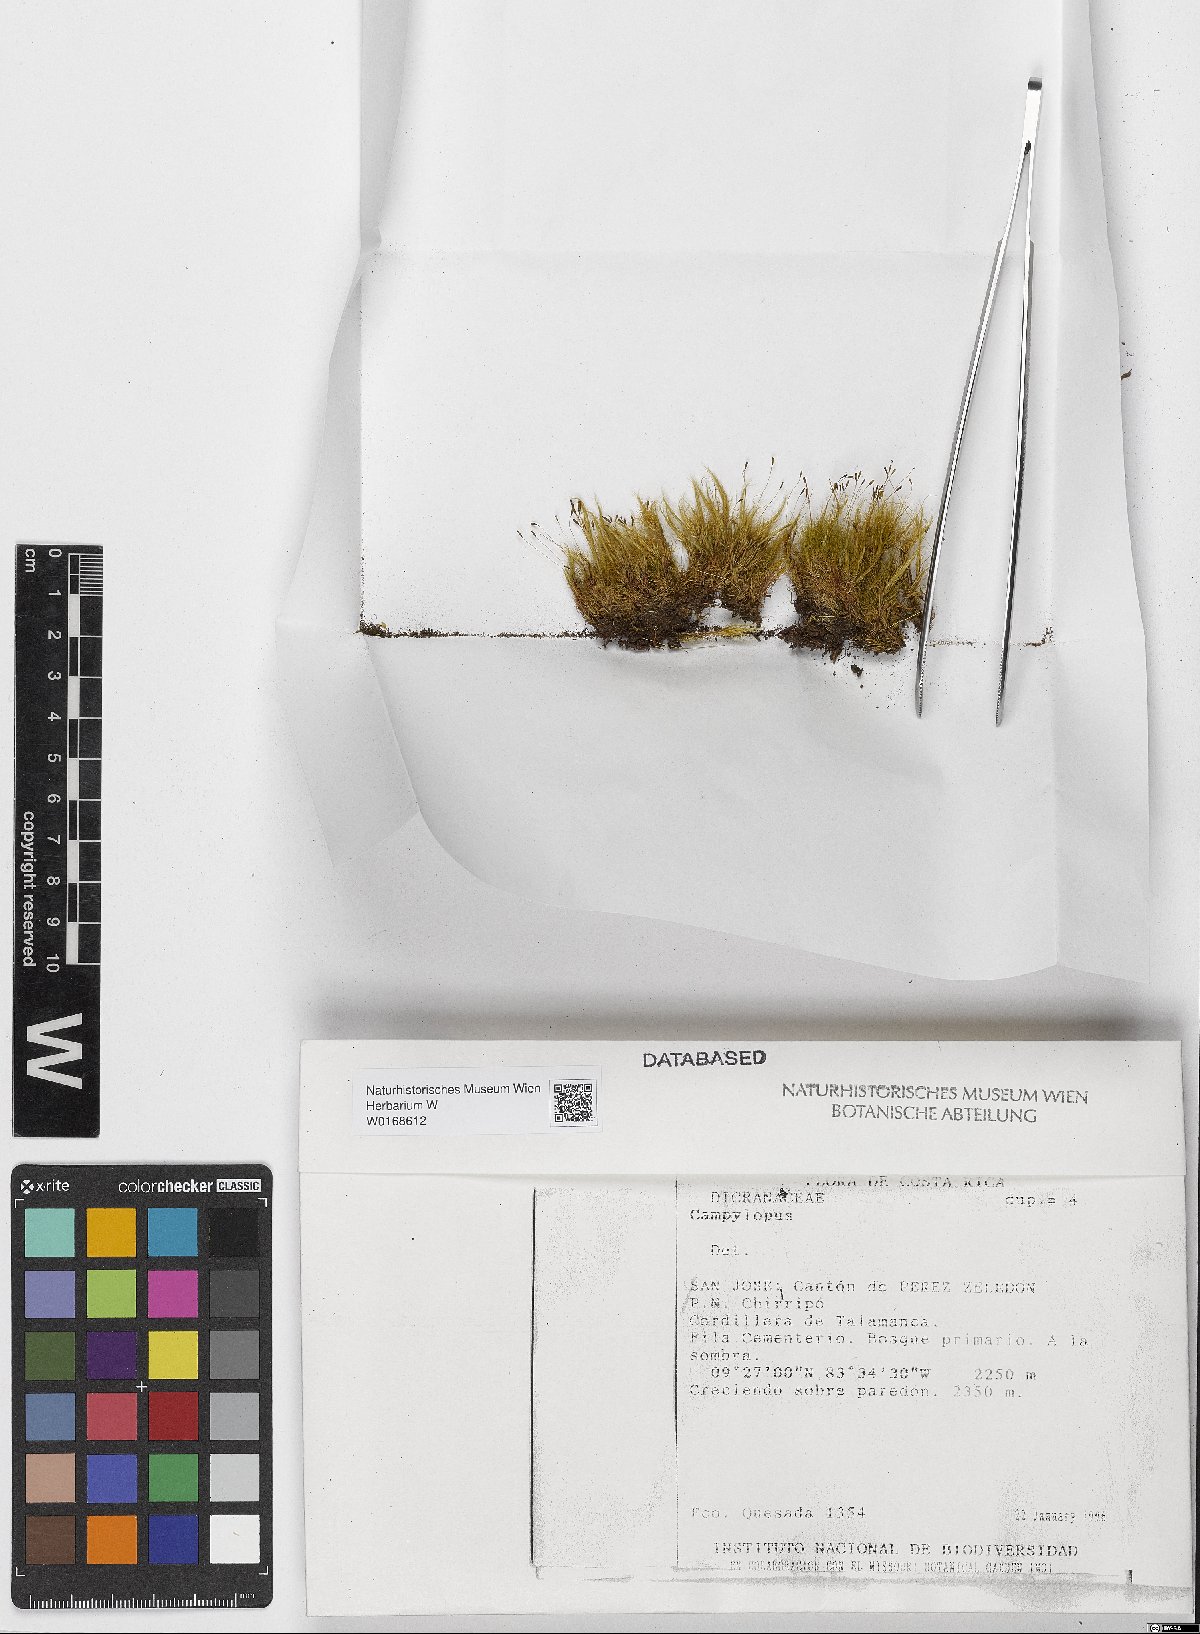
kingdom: Plantae
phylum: Bryophyta
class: Bryopsida
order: Dicranales
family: Leucobryaceae
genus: Campylopus
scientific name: Campylopus
